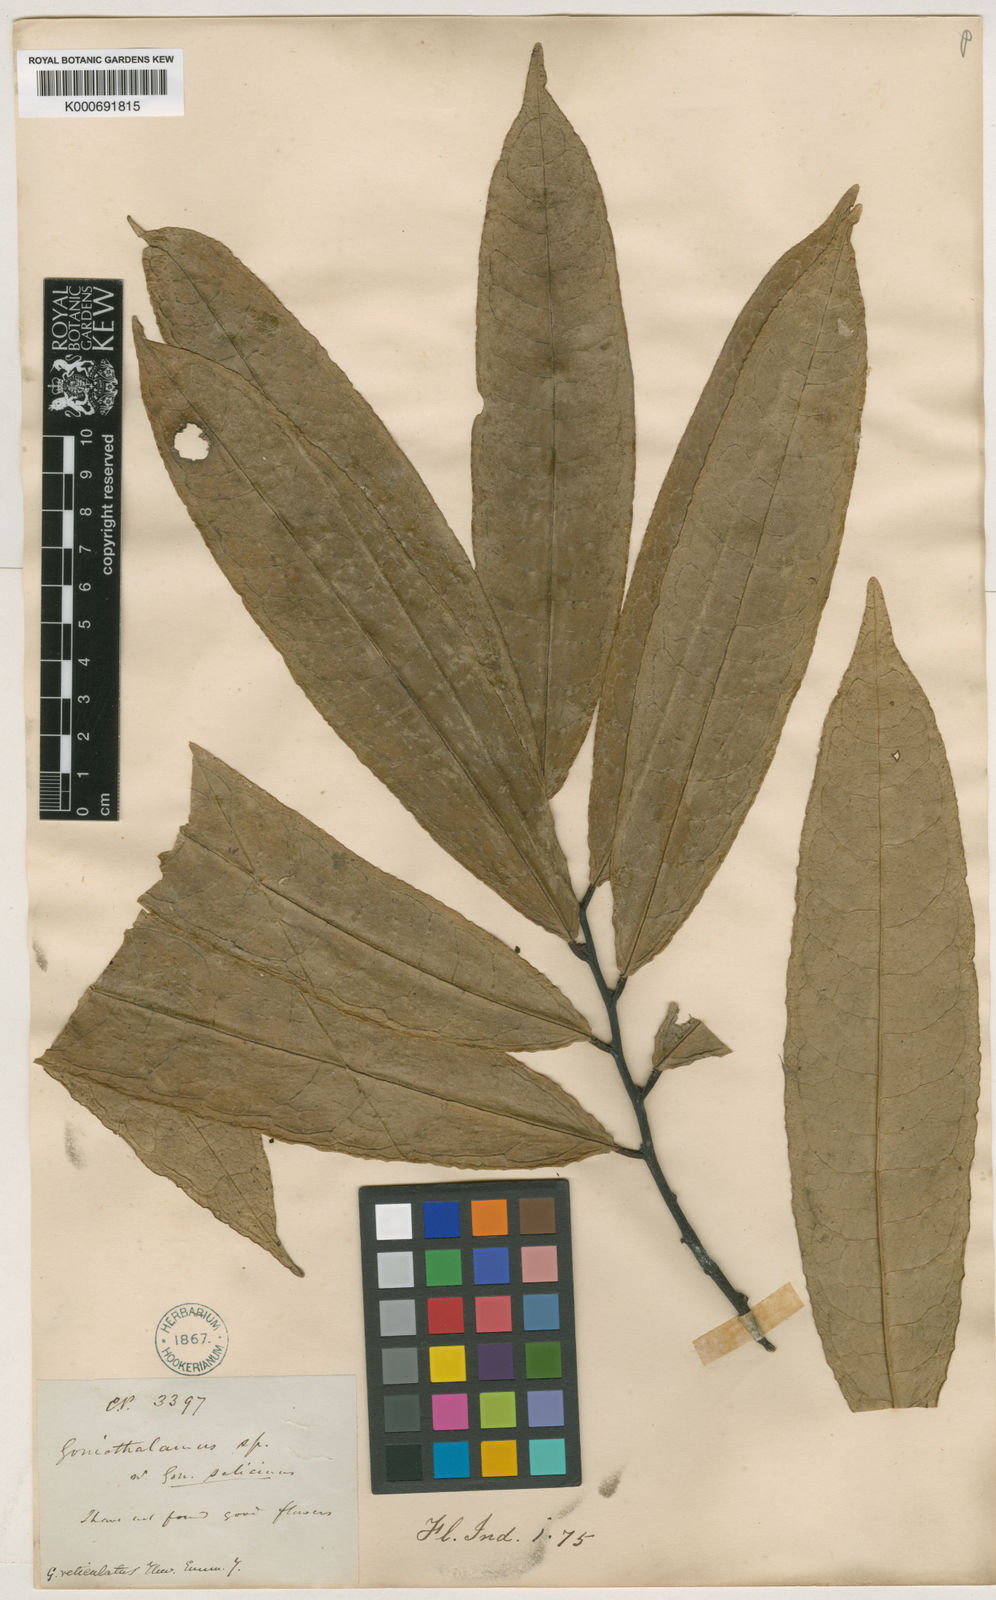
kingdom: Plantae
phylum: Tracheophyta
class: Magnoliopsida
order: Magnoliales
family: Annonaceae
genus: Goniothalamus
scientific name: Goniothalamus reticulatus
